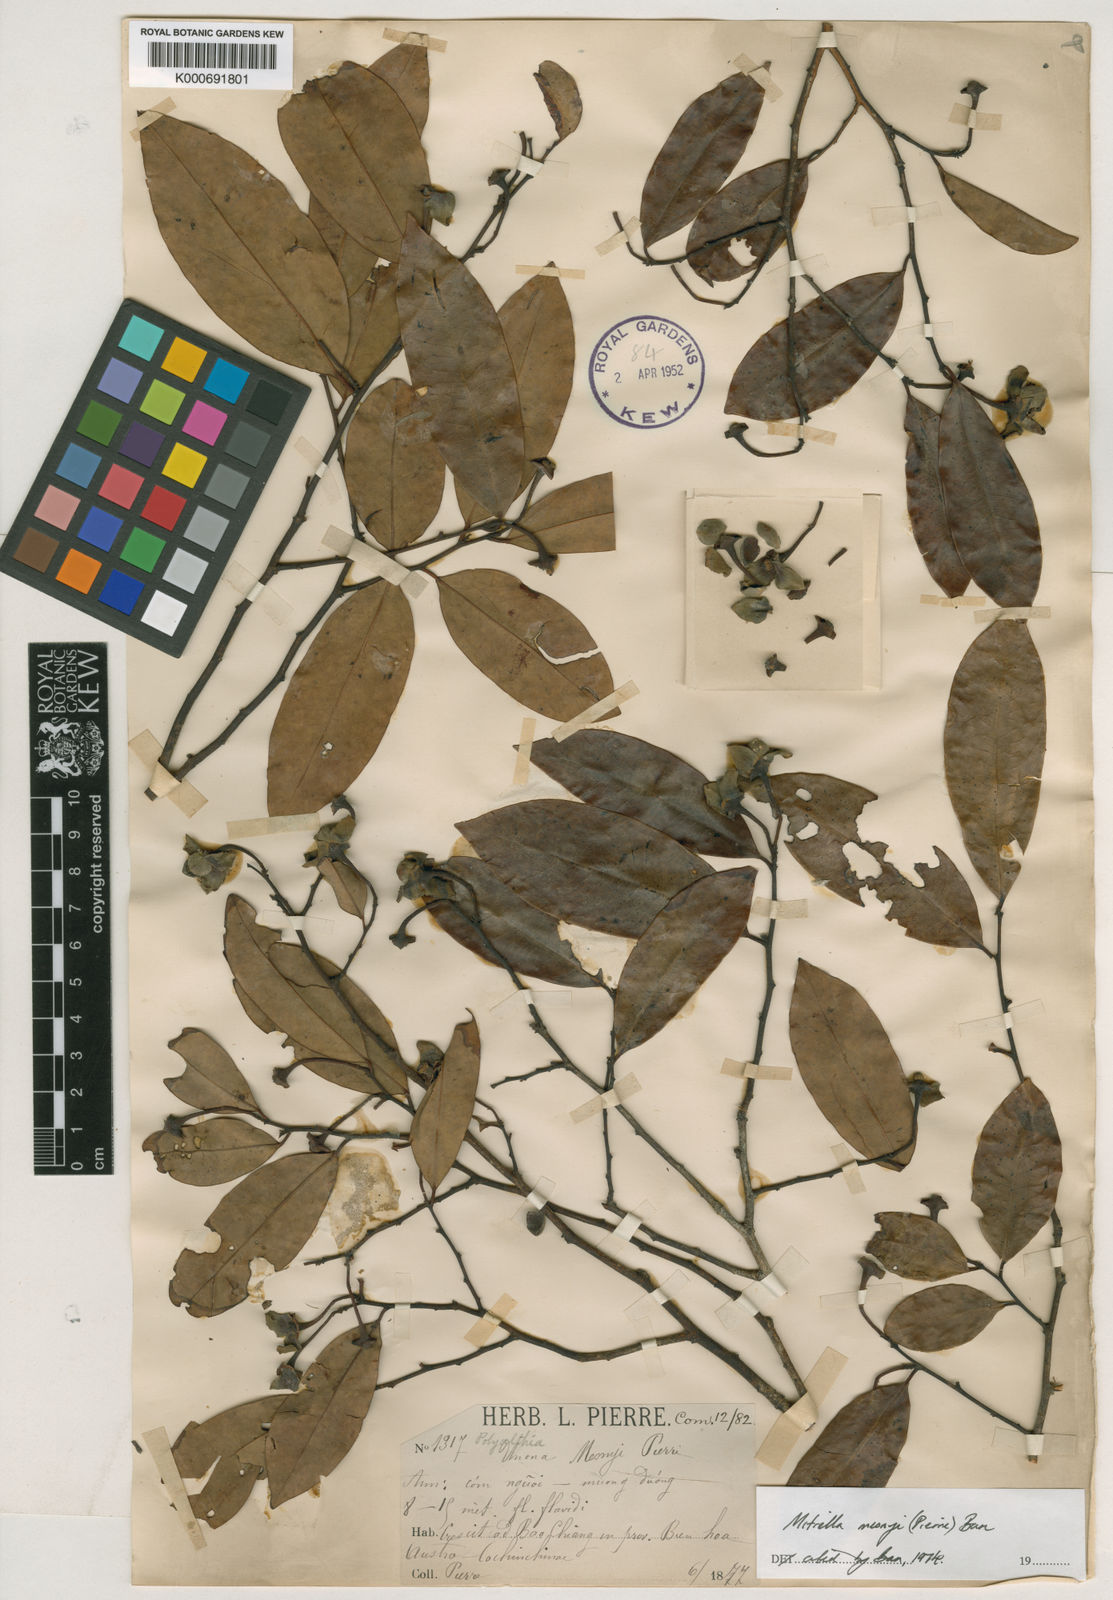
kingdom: Plantae
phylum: Tracheophyta
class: Magnoliopsida
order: Magnoliales
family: Annonaceae
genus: Sphaerocoryne
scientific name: Sphaerocoryne affinis
